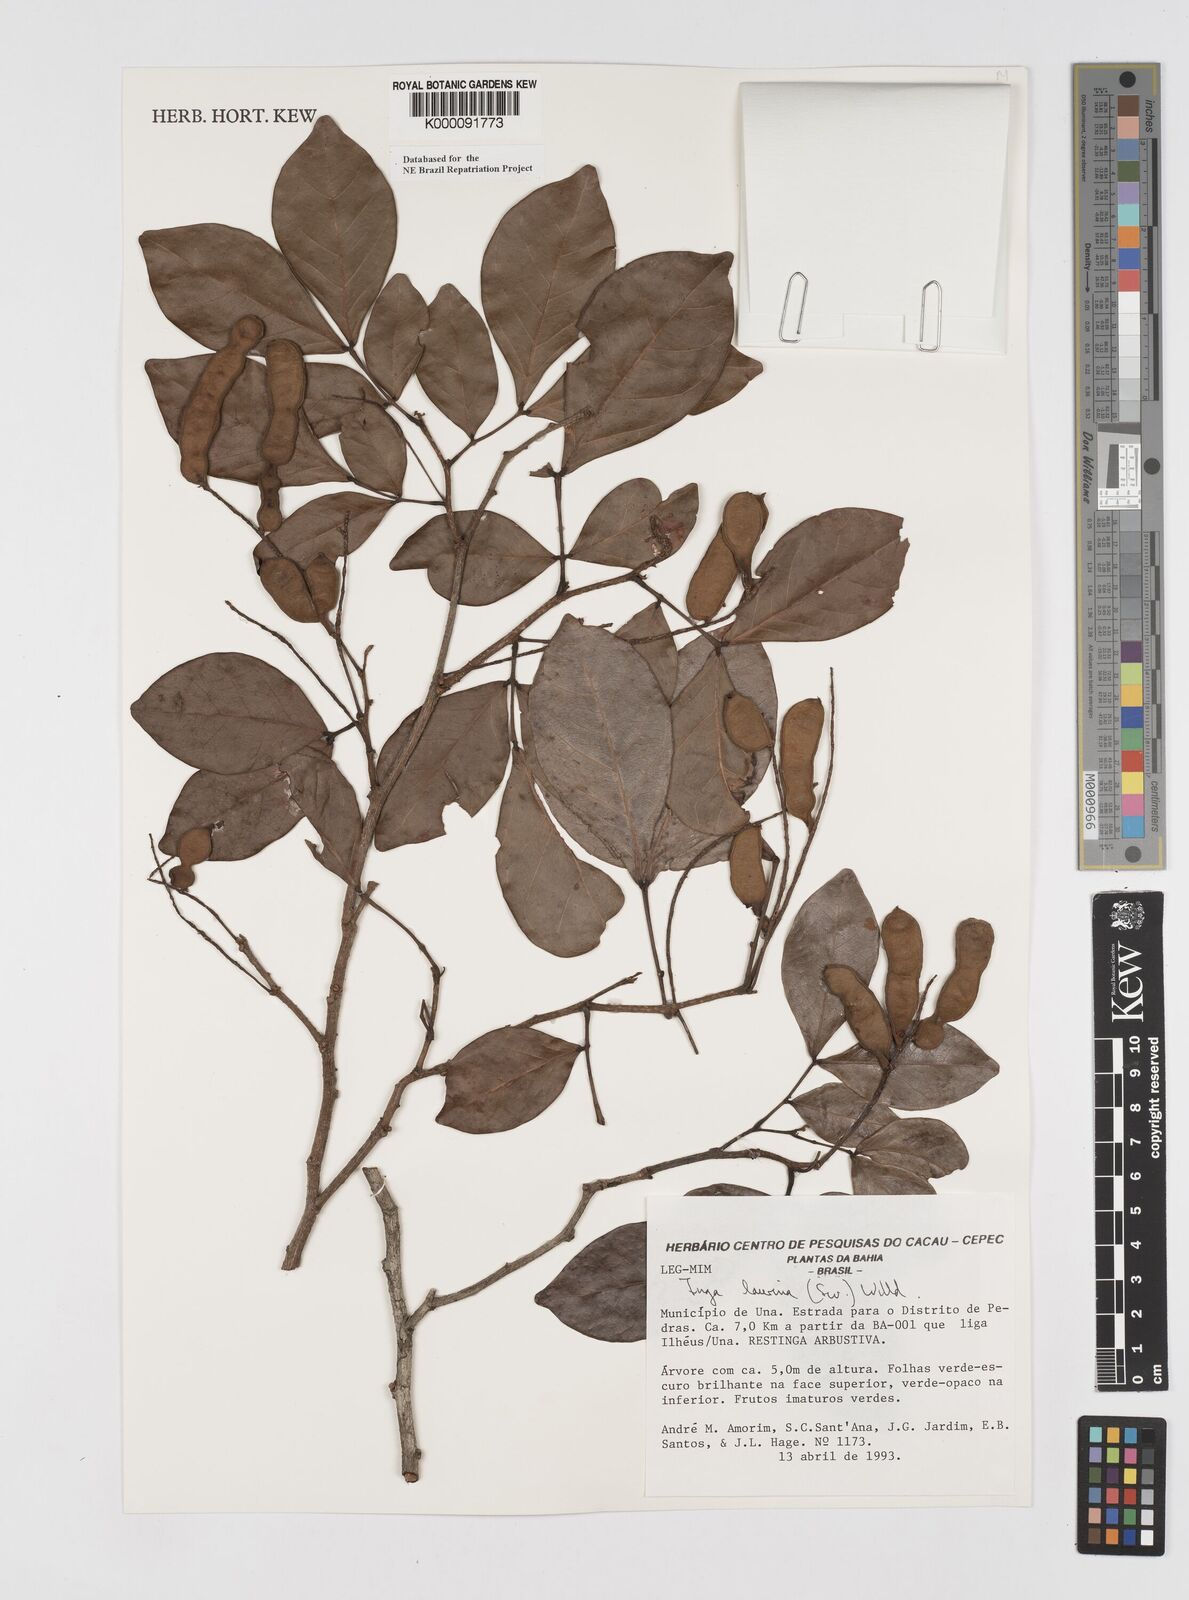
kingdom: Plantae
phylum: Tracheophyta
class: Magnoliopsida
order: Fabales
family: Fabaceae
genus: Inga
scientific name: Inga laurina
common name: Red wood
